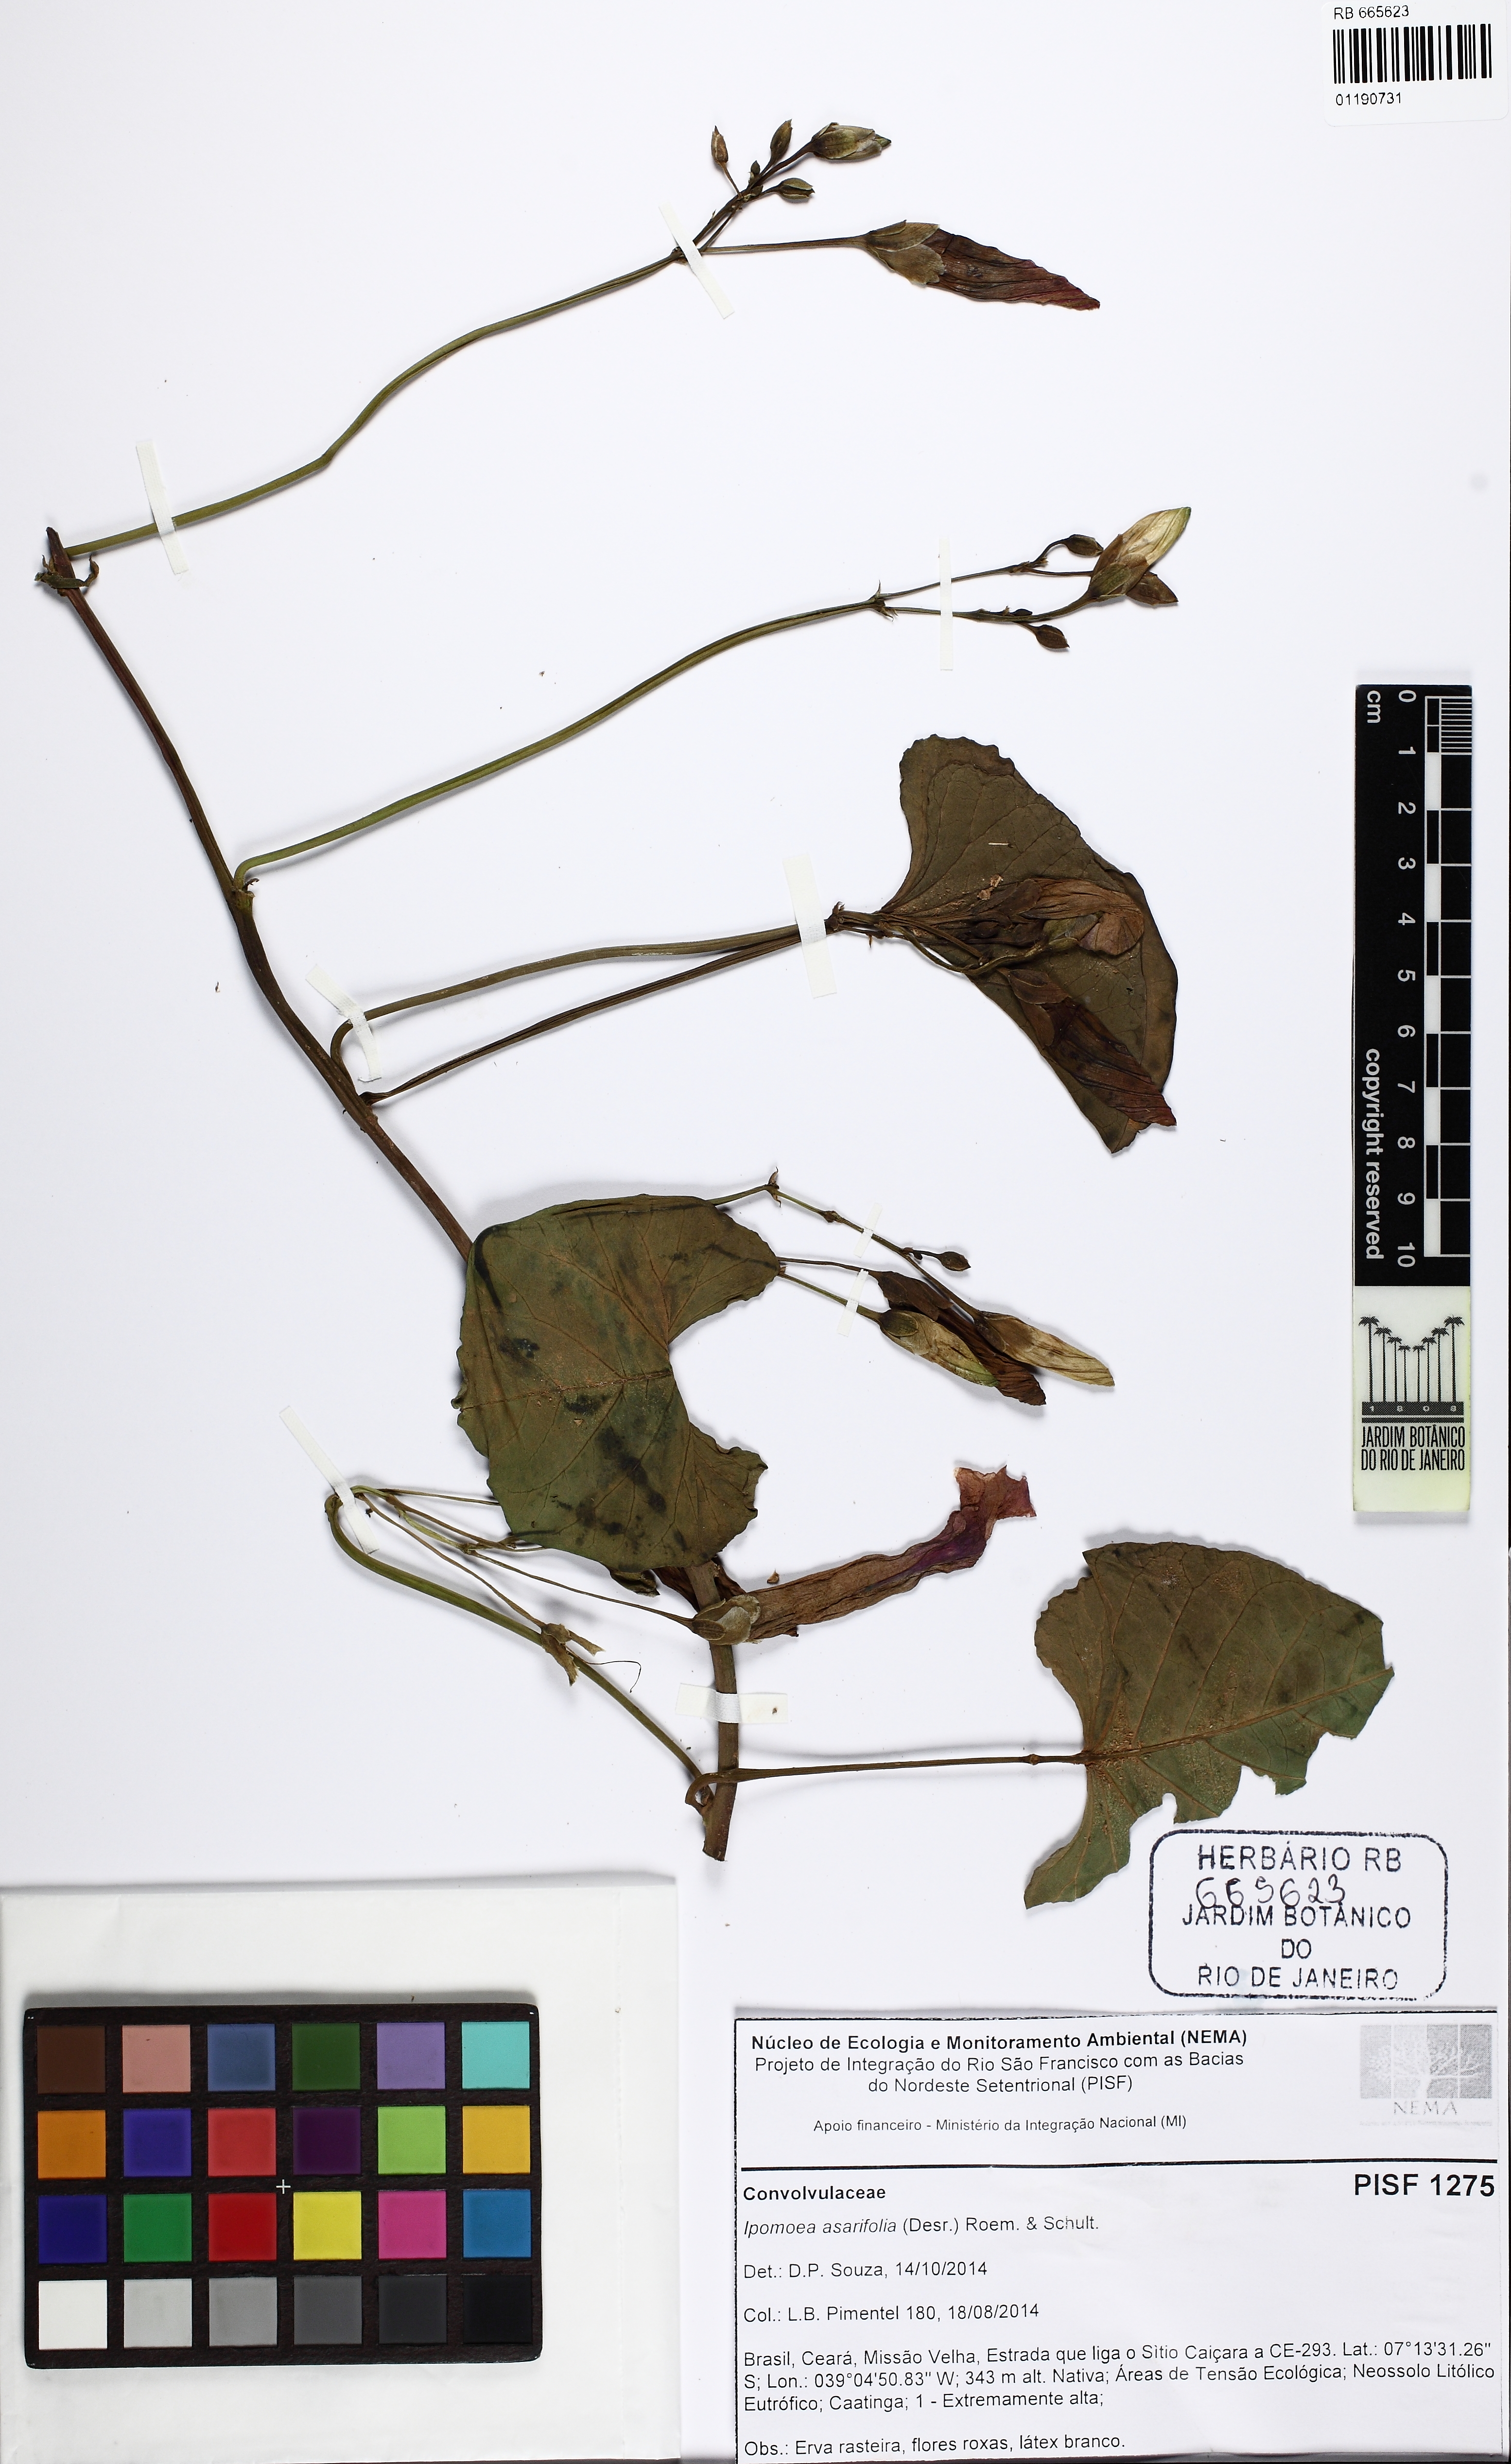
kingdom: Plantae
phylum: Tracheophyta
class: Magnoliopsida
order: Solanales
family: Convolvulaceae
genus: Ipomoea
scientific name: Ipomoea asarifolia
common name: Ginger-leaf morning-glory
